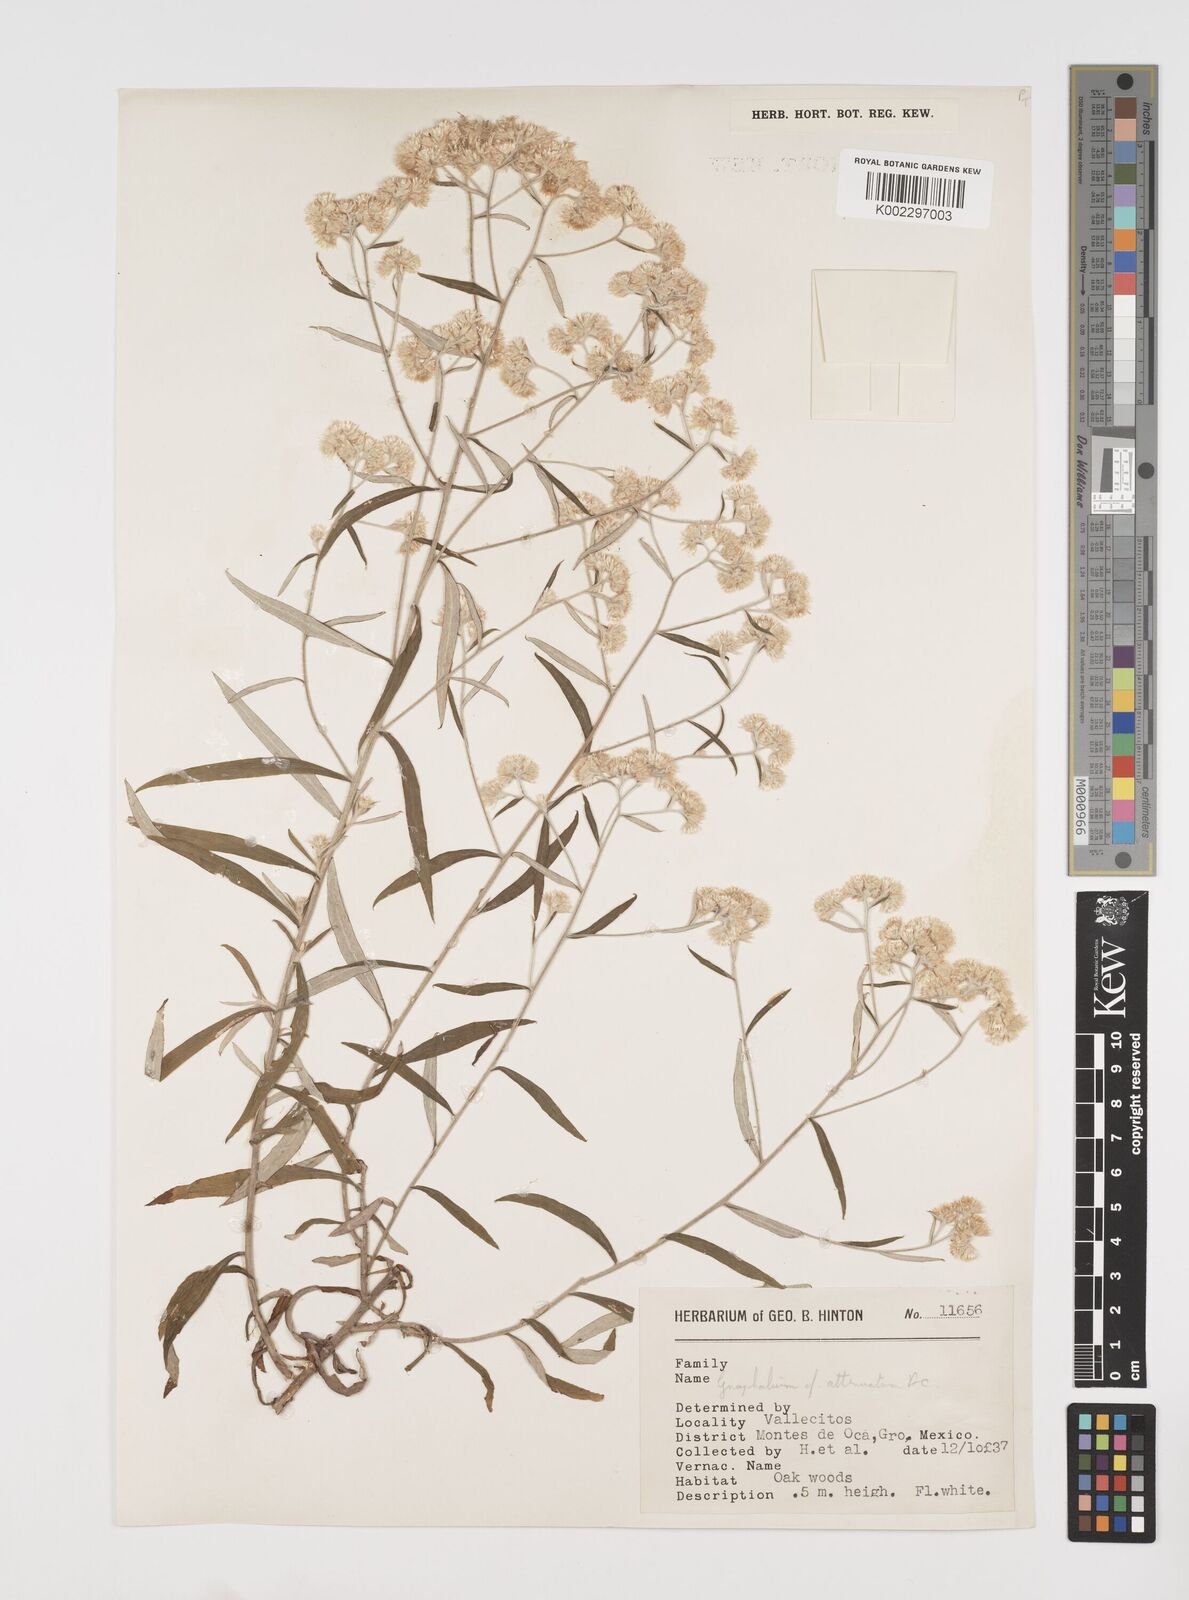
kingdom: Plantae
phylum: Tracheophyta
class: Magnoliopsida
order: Asterales
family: Asteraceae
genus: Pseudognaphalium
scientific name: Pseudognaphalium attenuatum
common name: Tapered cudweed
